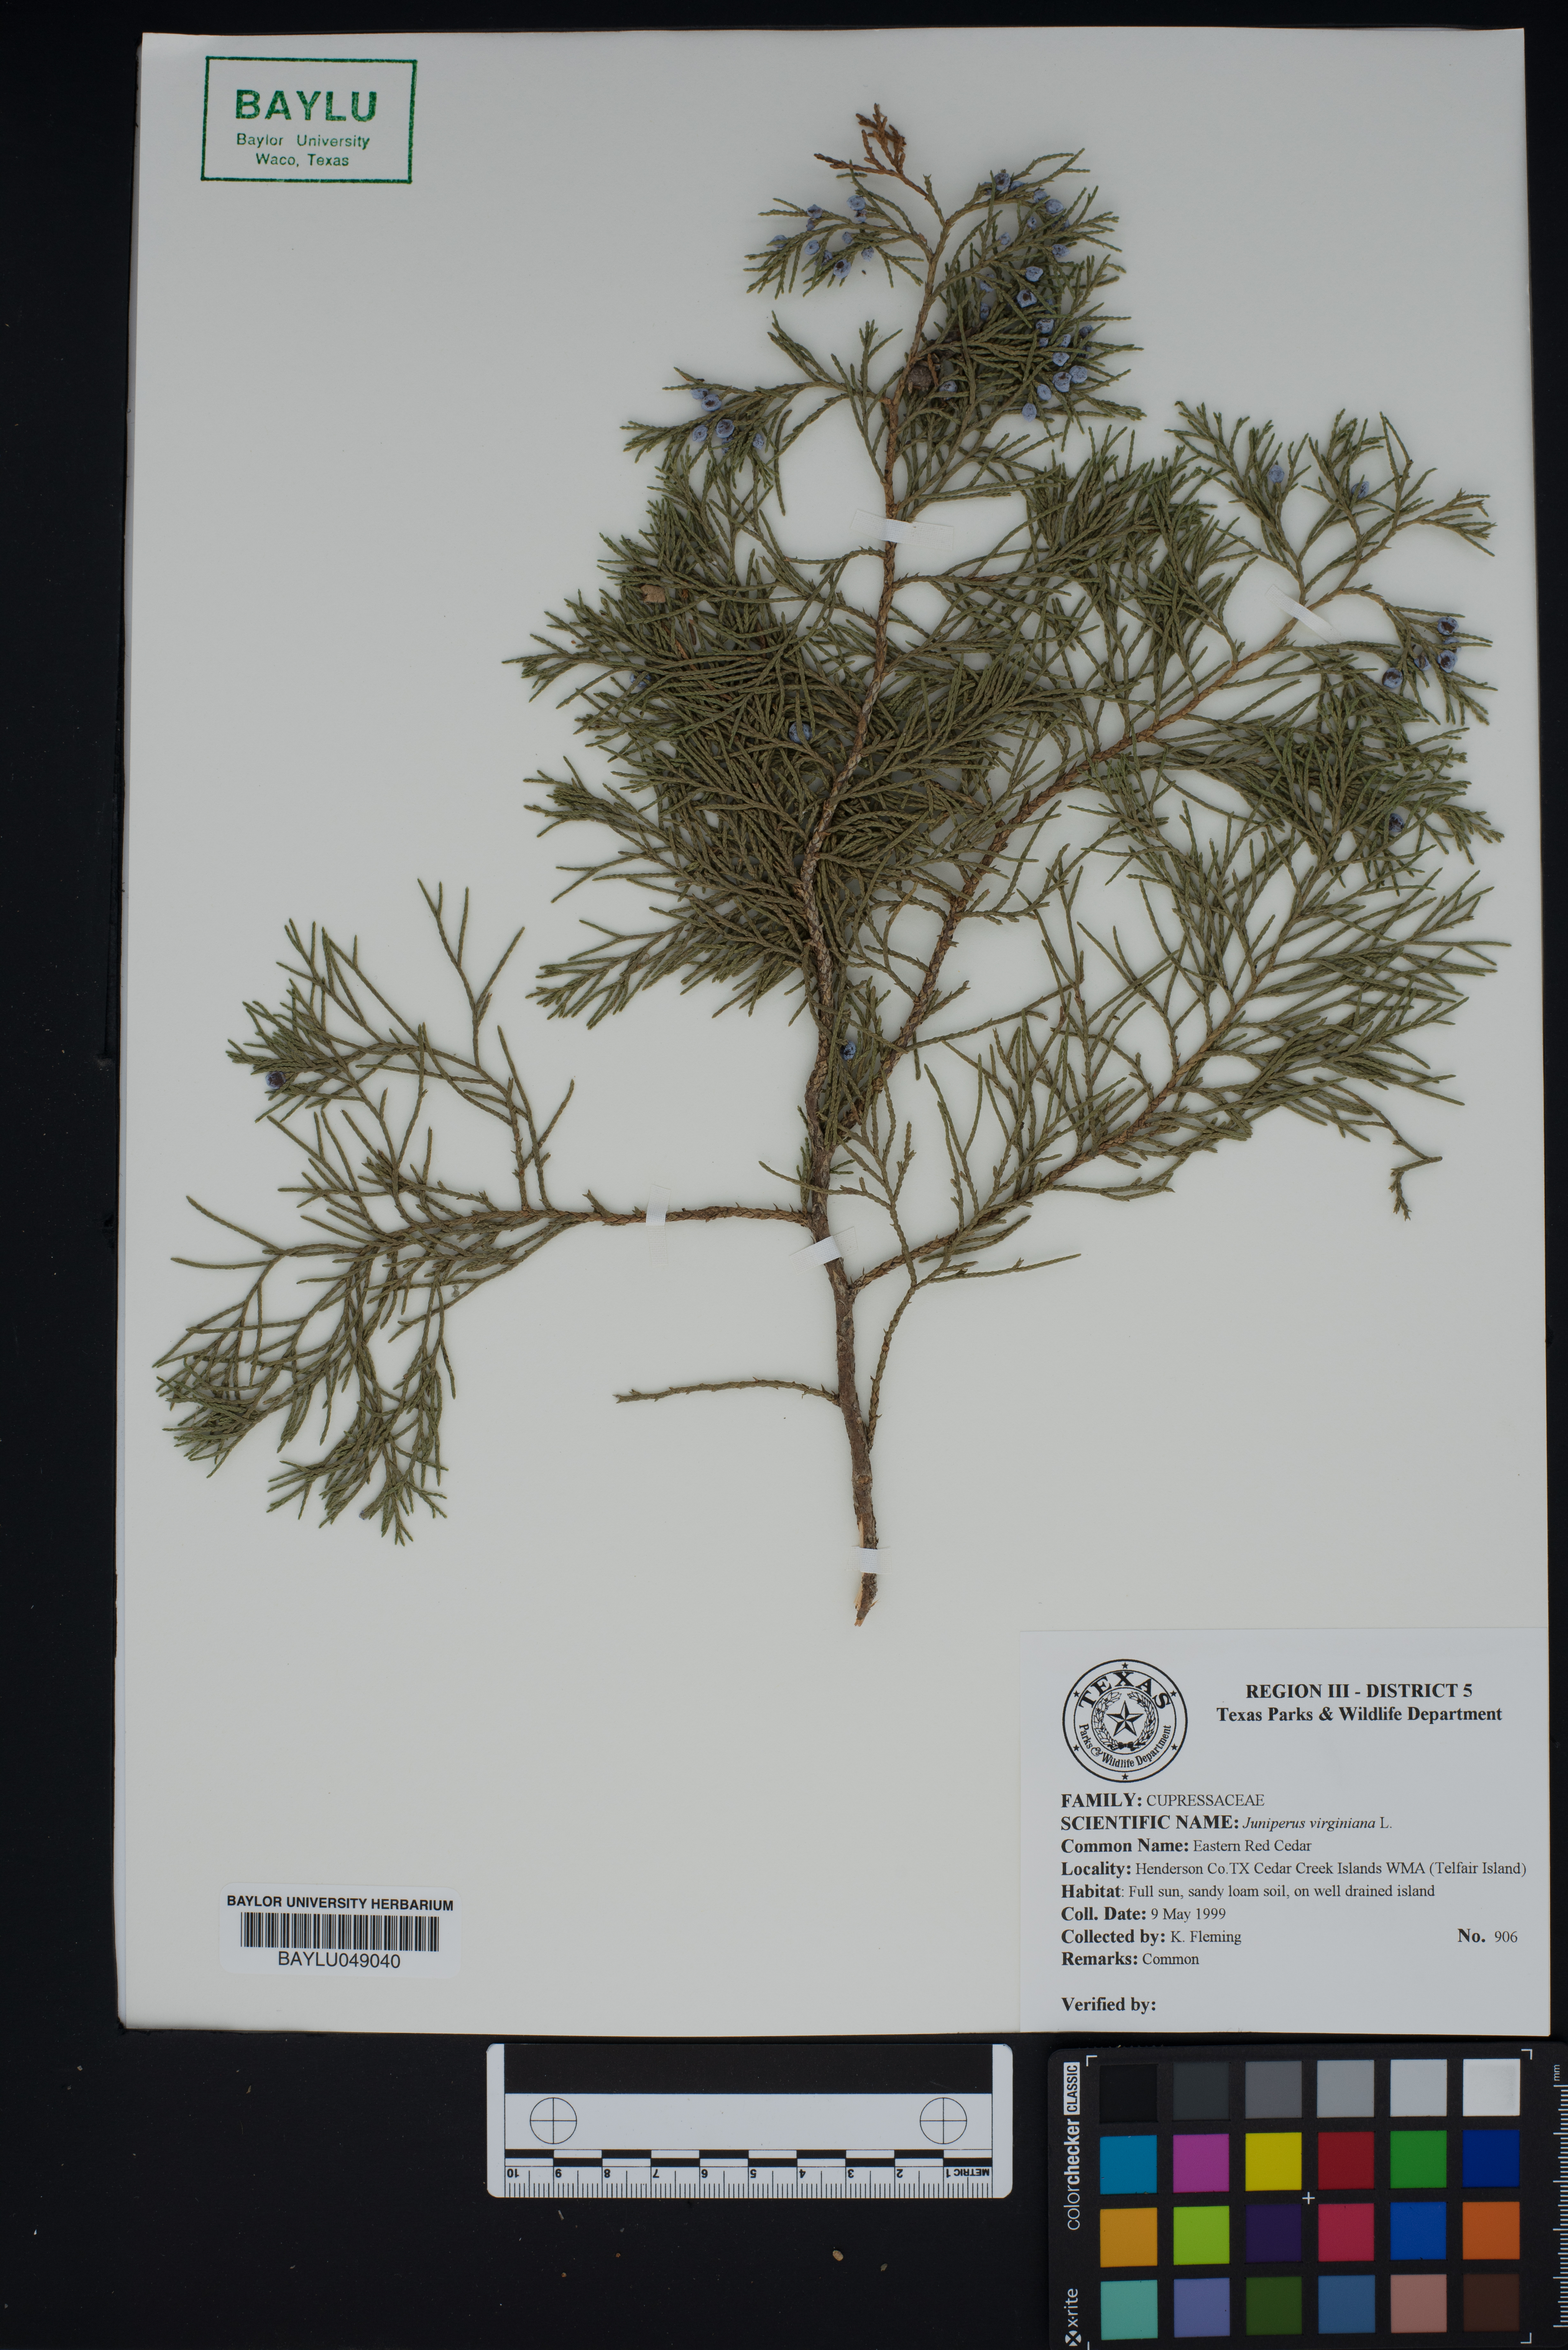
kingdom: Plantae
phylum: Tracheophyta
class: Pinopsida
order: Pinales
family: Cupressaceae
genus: Juniperus
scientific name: Juniperus virginiana
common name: Red juniper
